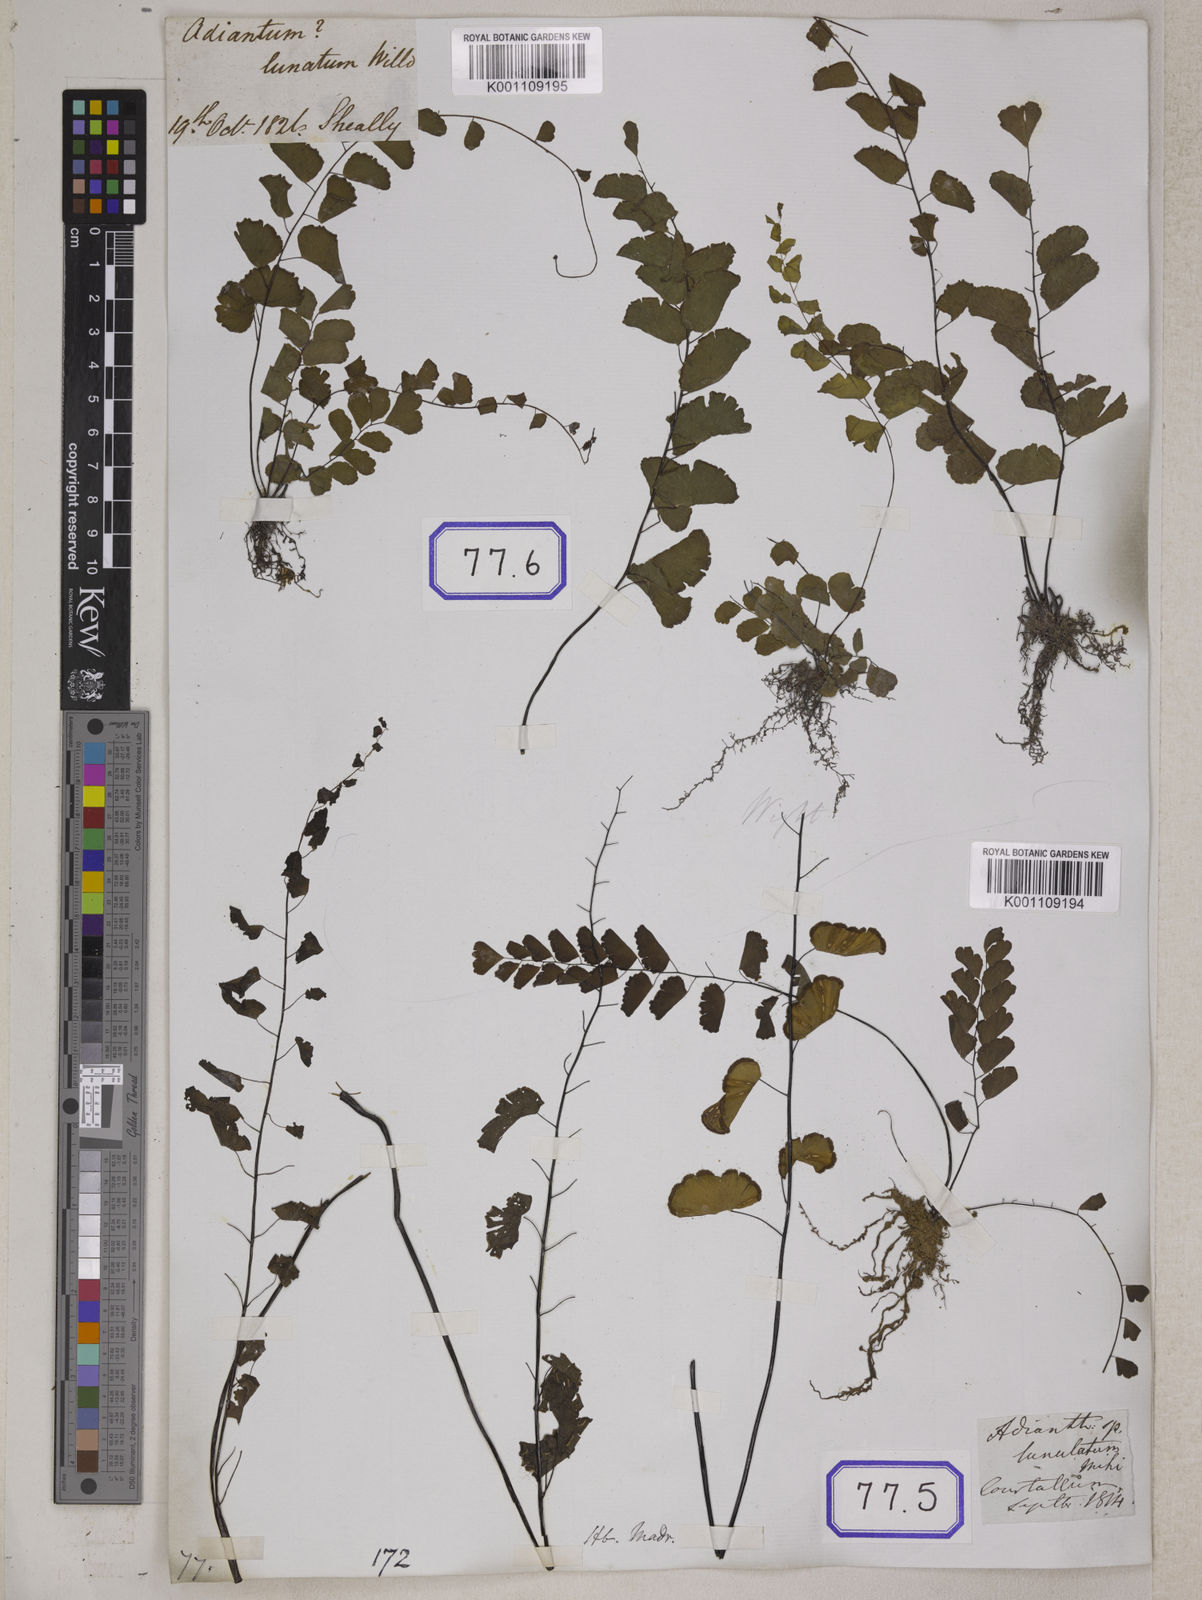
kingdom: Plantae
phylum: Tracheophyta
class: Polypodiopsida
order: Polypodiales
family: Pteridaceae
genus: Adiantum
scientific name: Adiantum philippense
